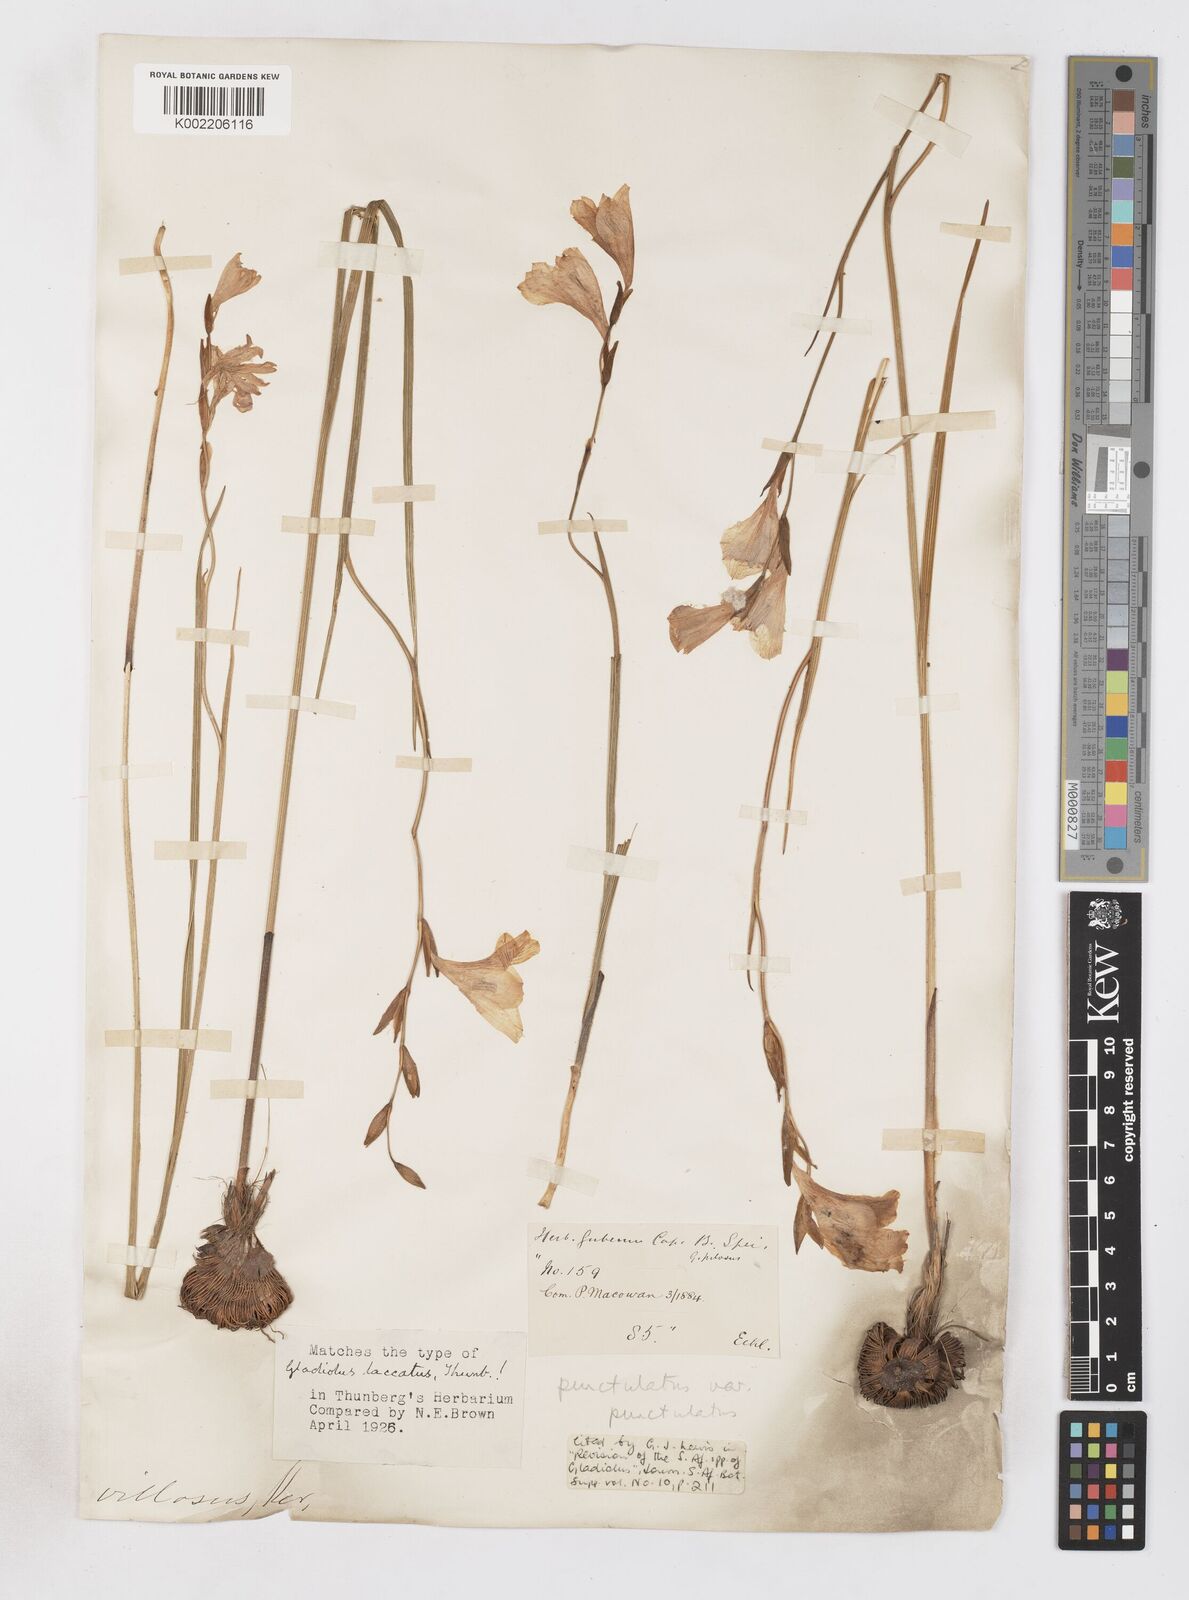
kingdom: Plantae
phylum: Tracheophyta
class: Liliopsida
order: Asparagales
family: Iridaceae
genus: Gladiolus
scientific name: Gladiolus hirsutus
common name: Small pink afrikaner
